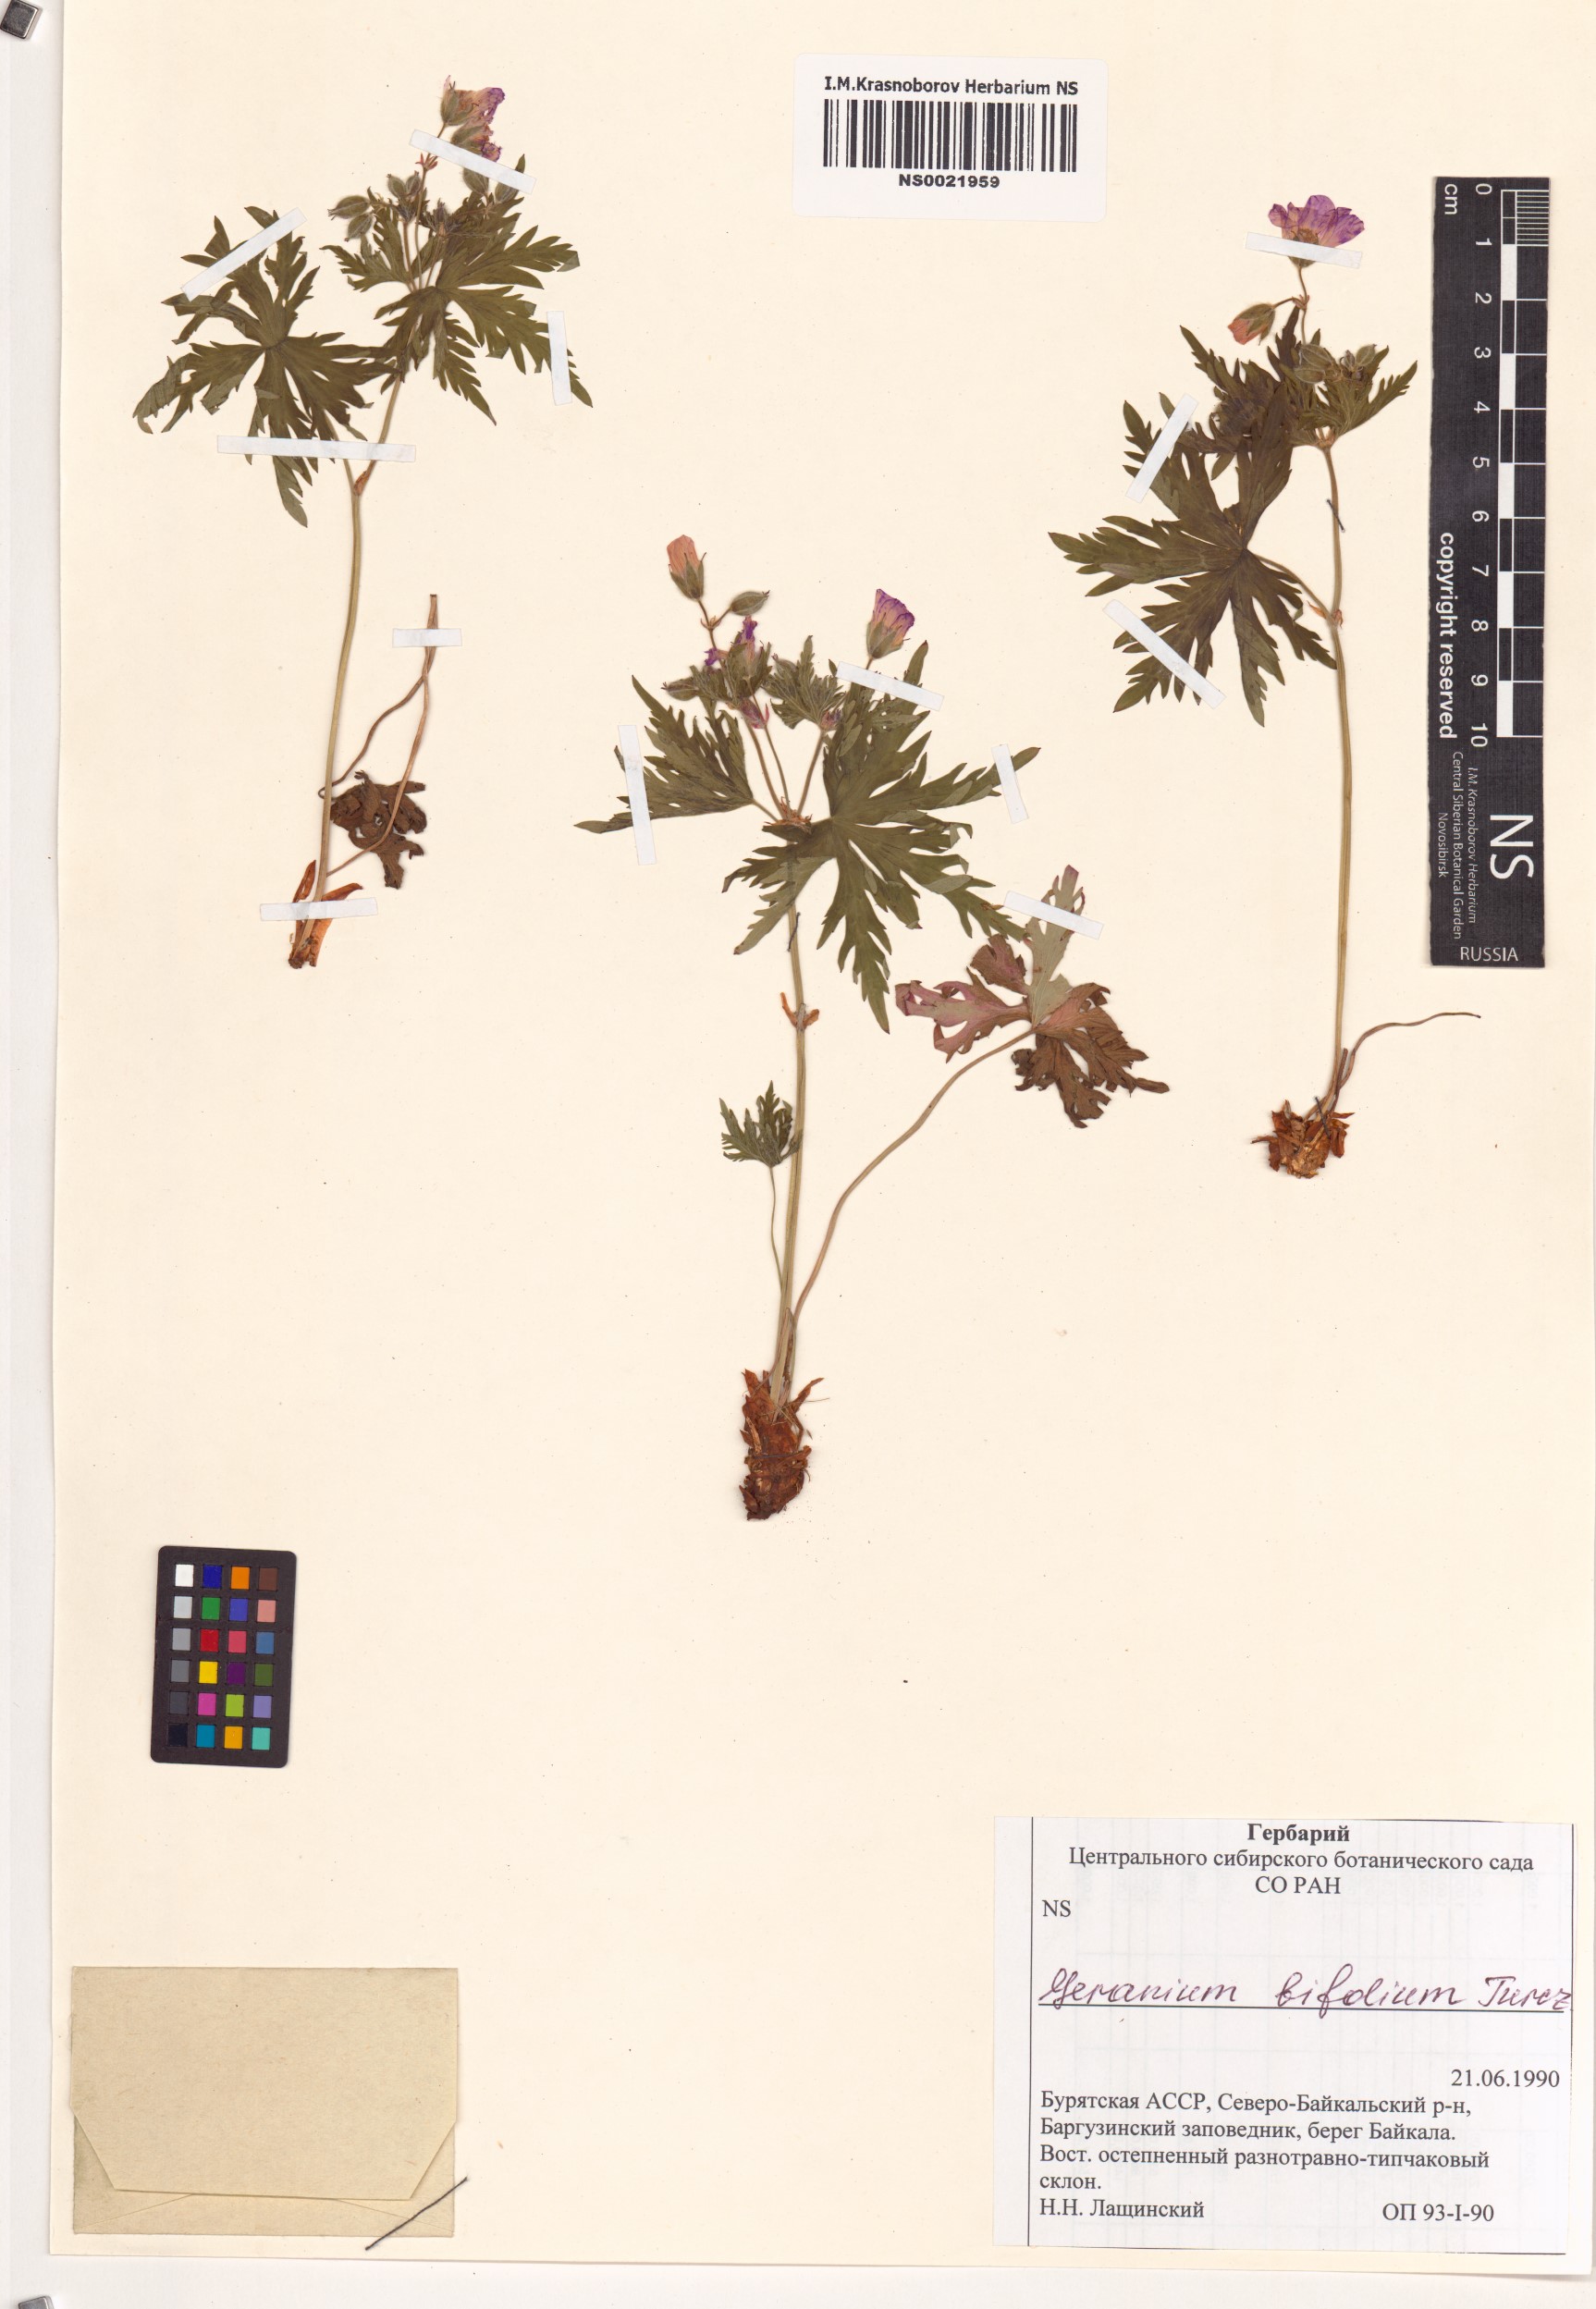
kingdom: Plantae
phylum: Tracheophyta
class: Magnoliopsida
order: Geraniales
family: Geraniaceae
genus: Geranium
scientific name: Geranium pseudosibiricum
